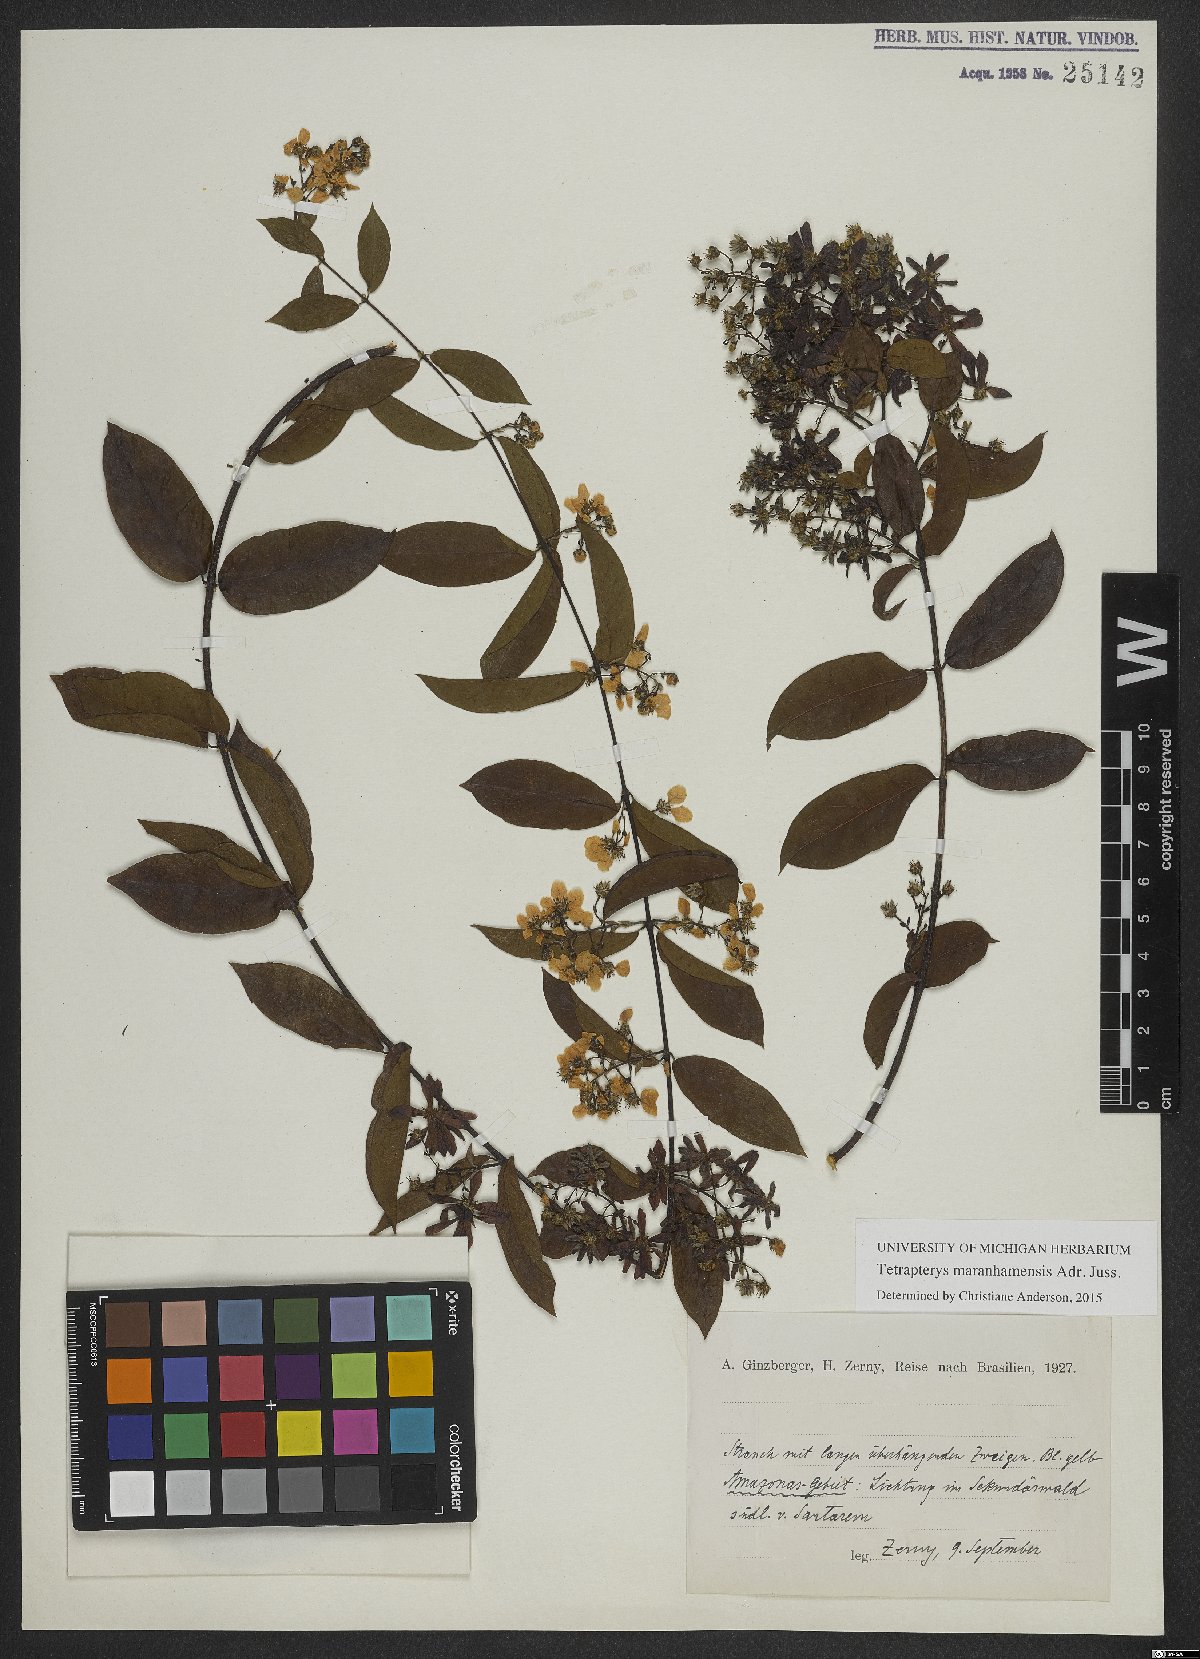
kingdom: Plantae
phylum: Tracheophyta
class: Magnoliopsida
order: Malpighiales
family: Malpighiaceae
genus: Glicophyllum
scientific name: Glicophyllum maranhamense
